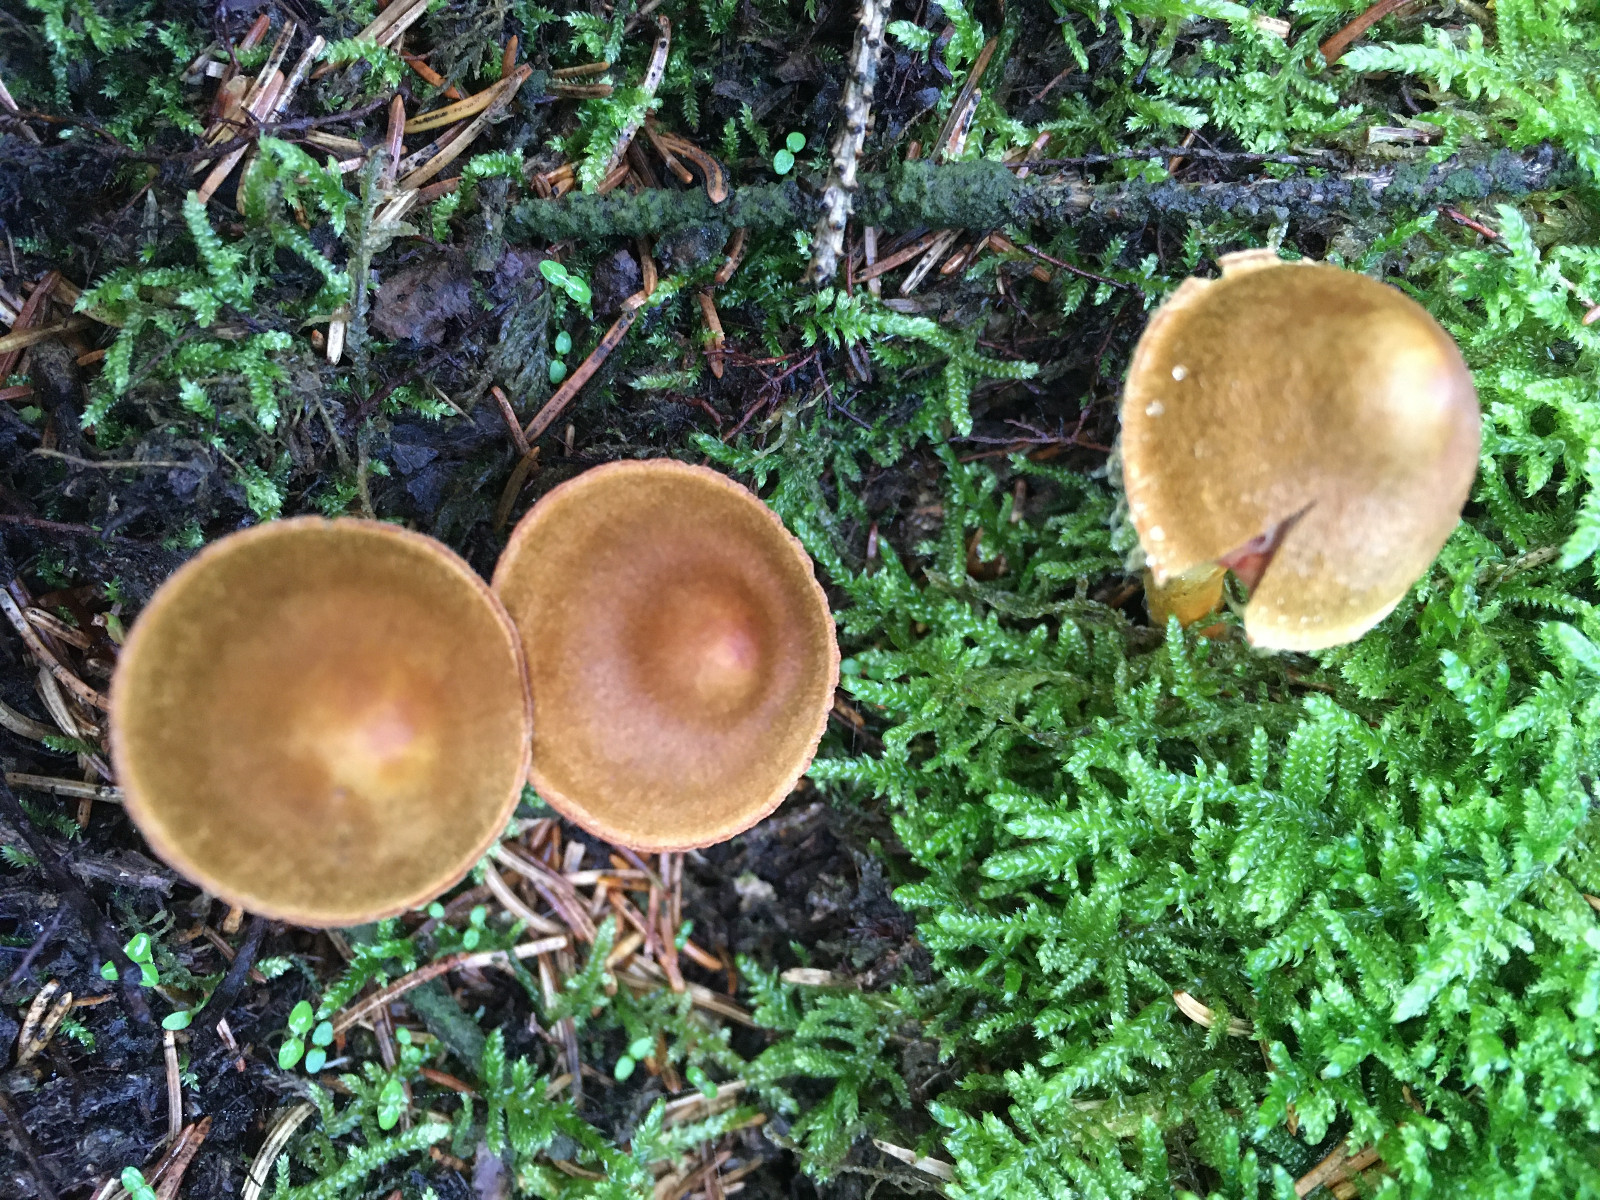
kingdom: Fungi
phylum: Basidiomycota
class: Agaricomycetes
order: Agaricales
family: Cortinariaceae
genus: Cortinarius
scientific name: Cortinarius
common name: cinnoberbladet slørhat
